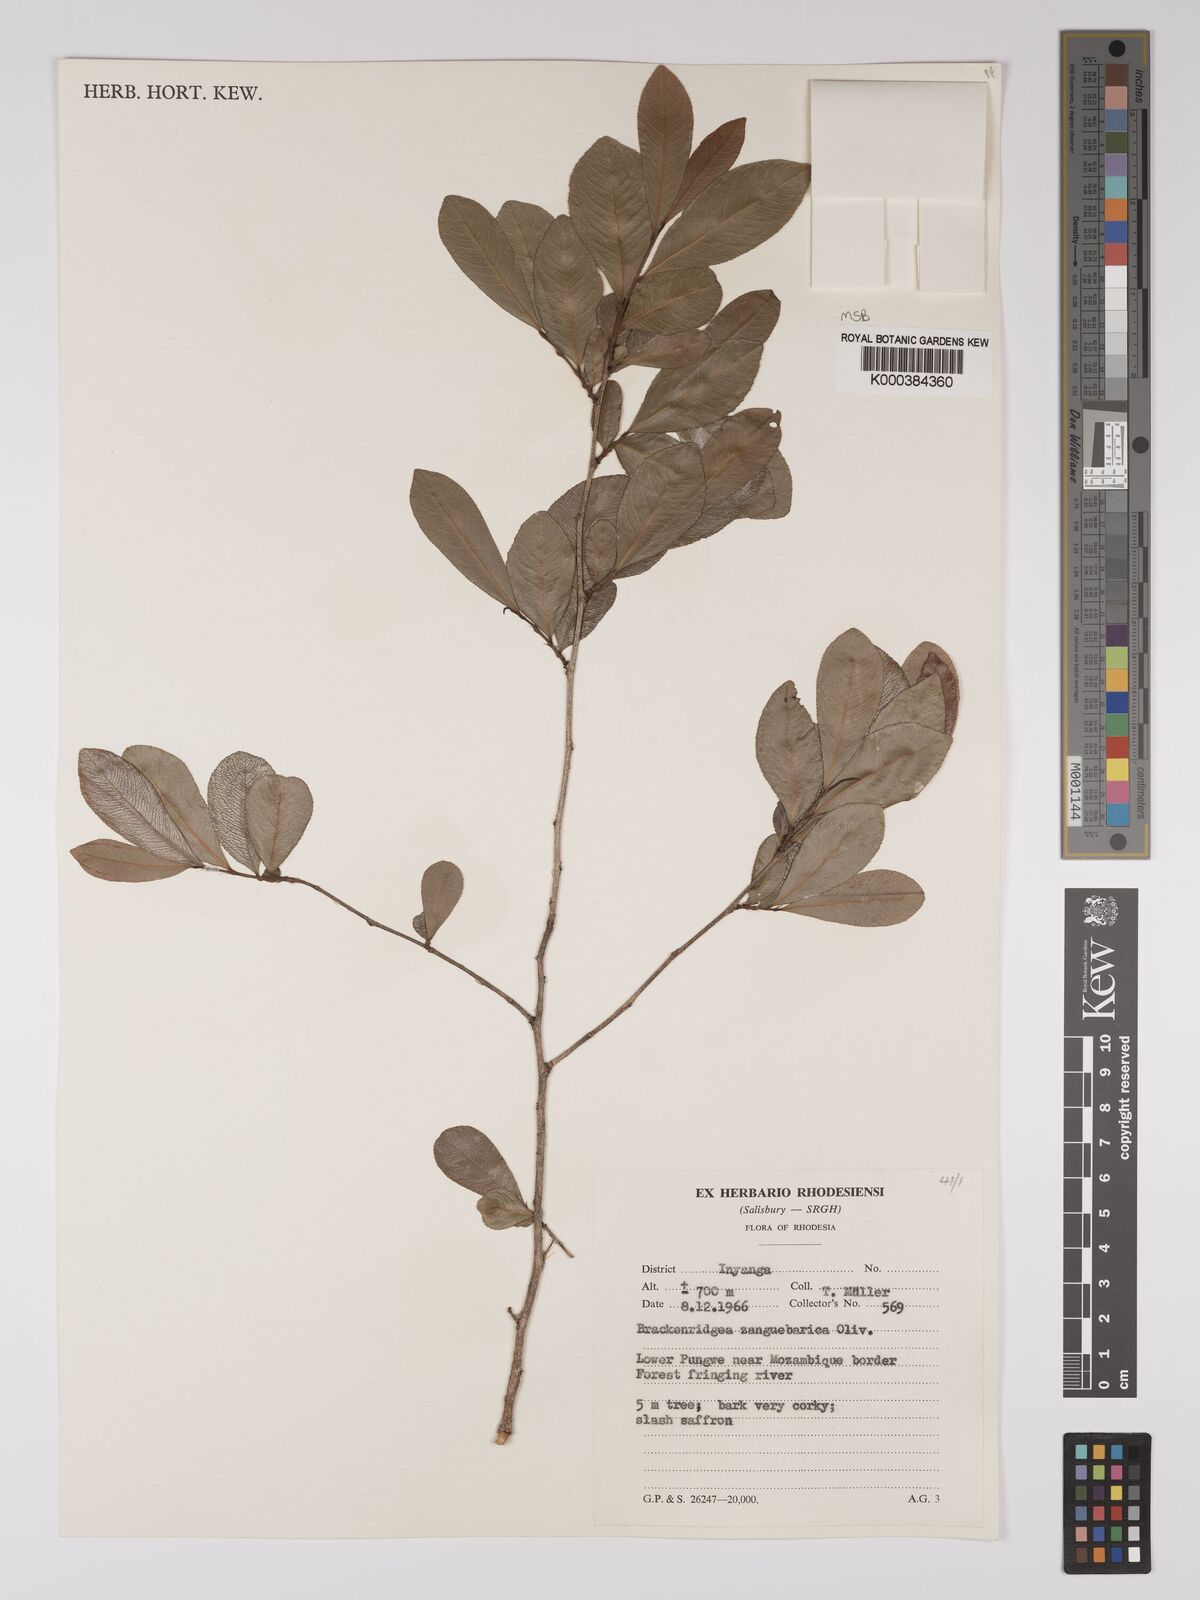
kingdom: Plantae
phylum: Tracheophyta
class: Magnoliopsida
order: Malpighiales
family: Ochnaceae
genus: Brackenridgea
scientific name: Brackenridgea zanguebarica
